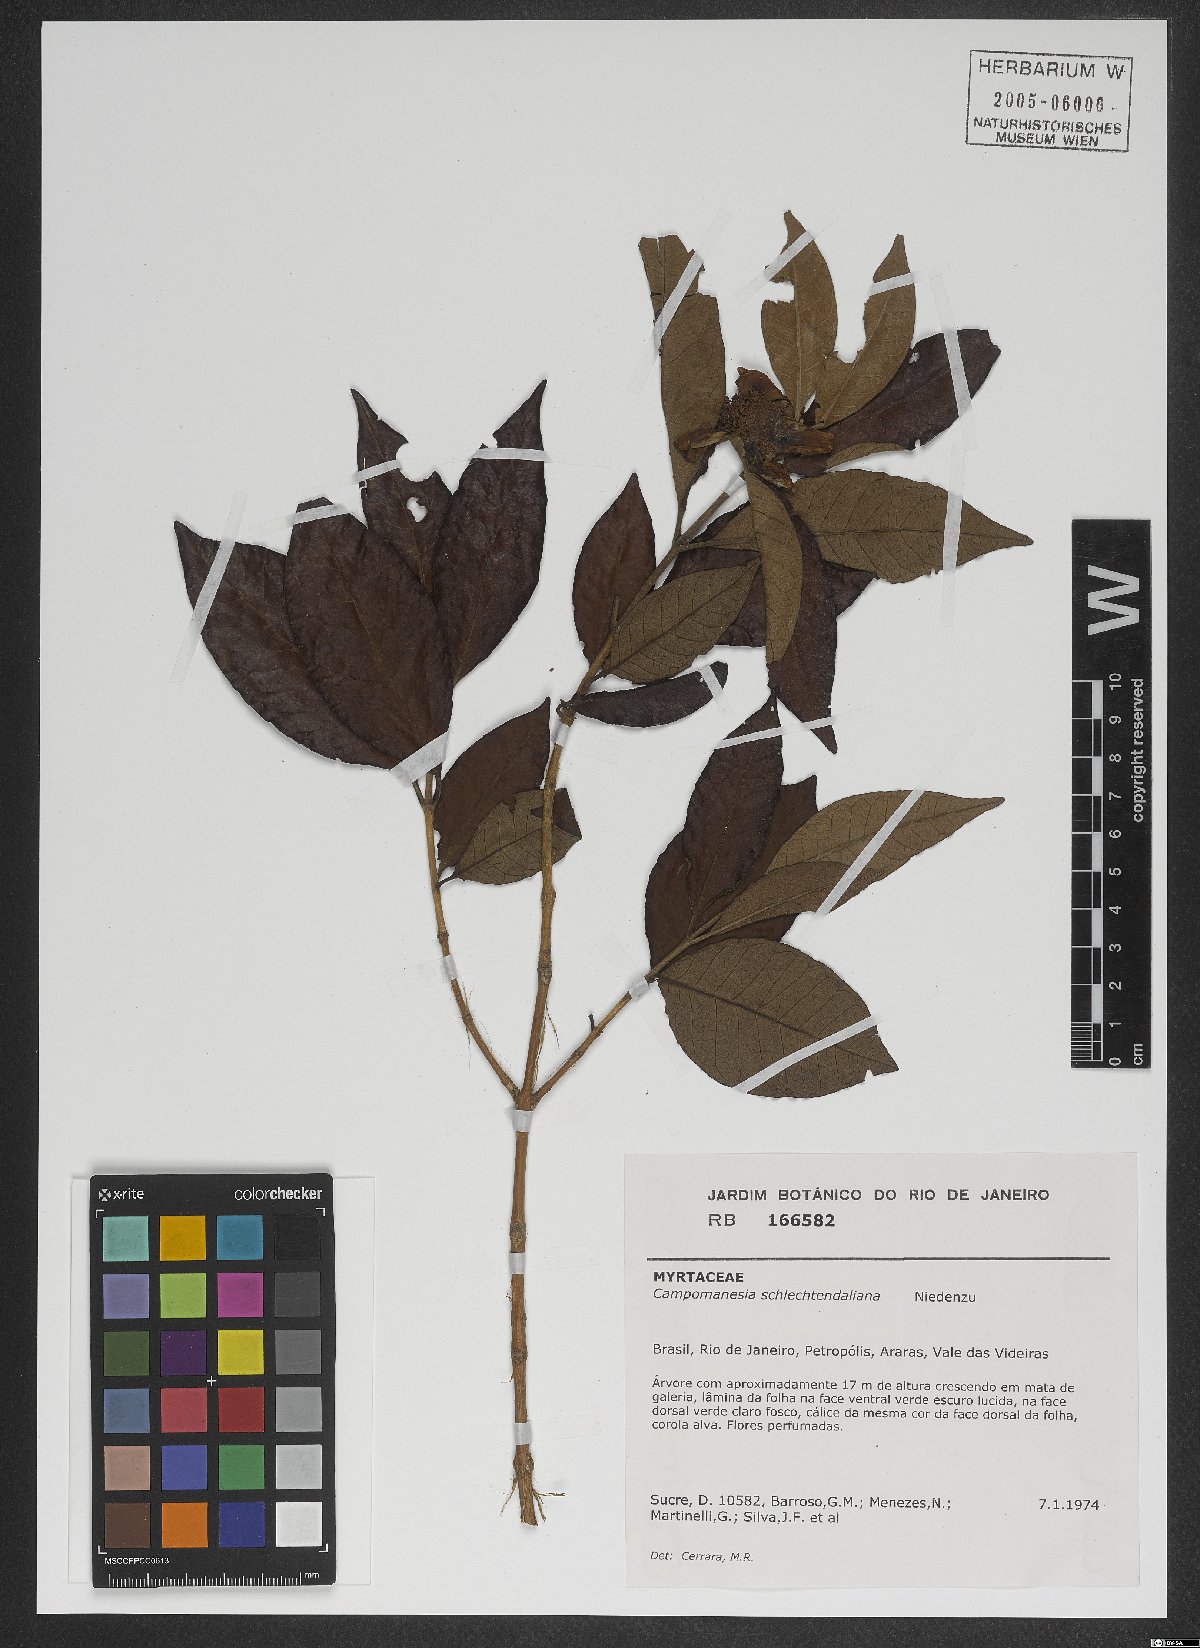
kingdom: Plantae
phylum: Tracheophyta
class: Magnoliopsida
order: Myrtales
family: Myrtaceae
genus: Campomanesia
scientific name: Campomanesia schlechtendaliana
